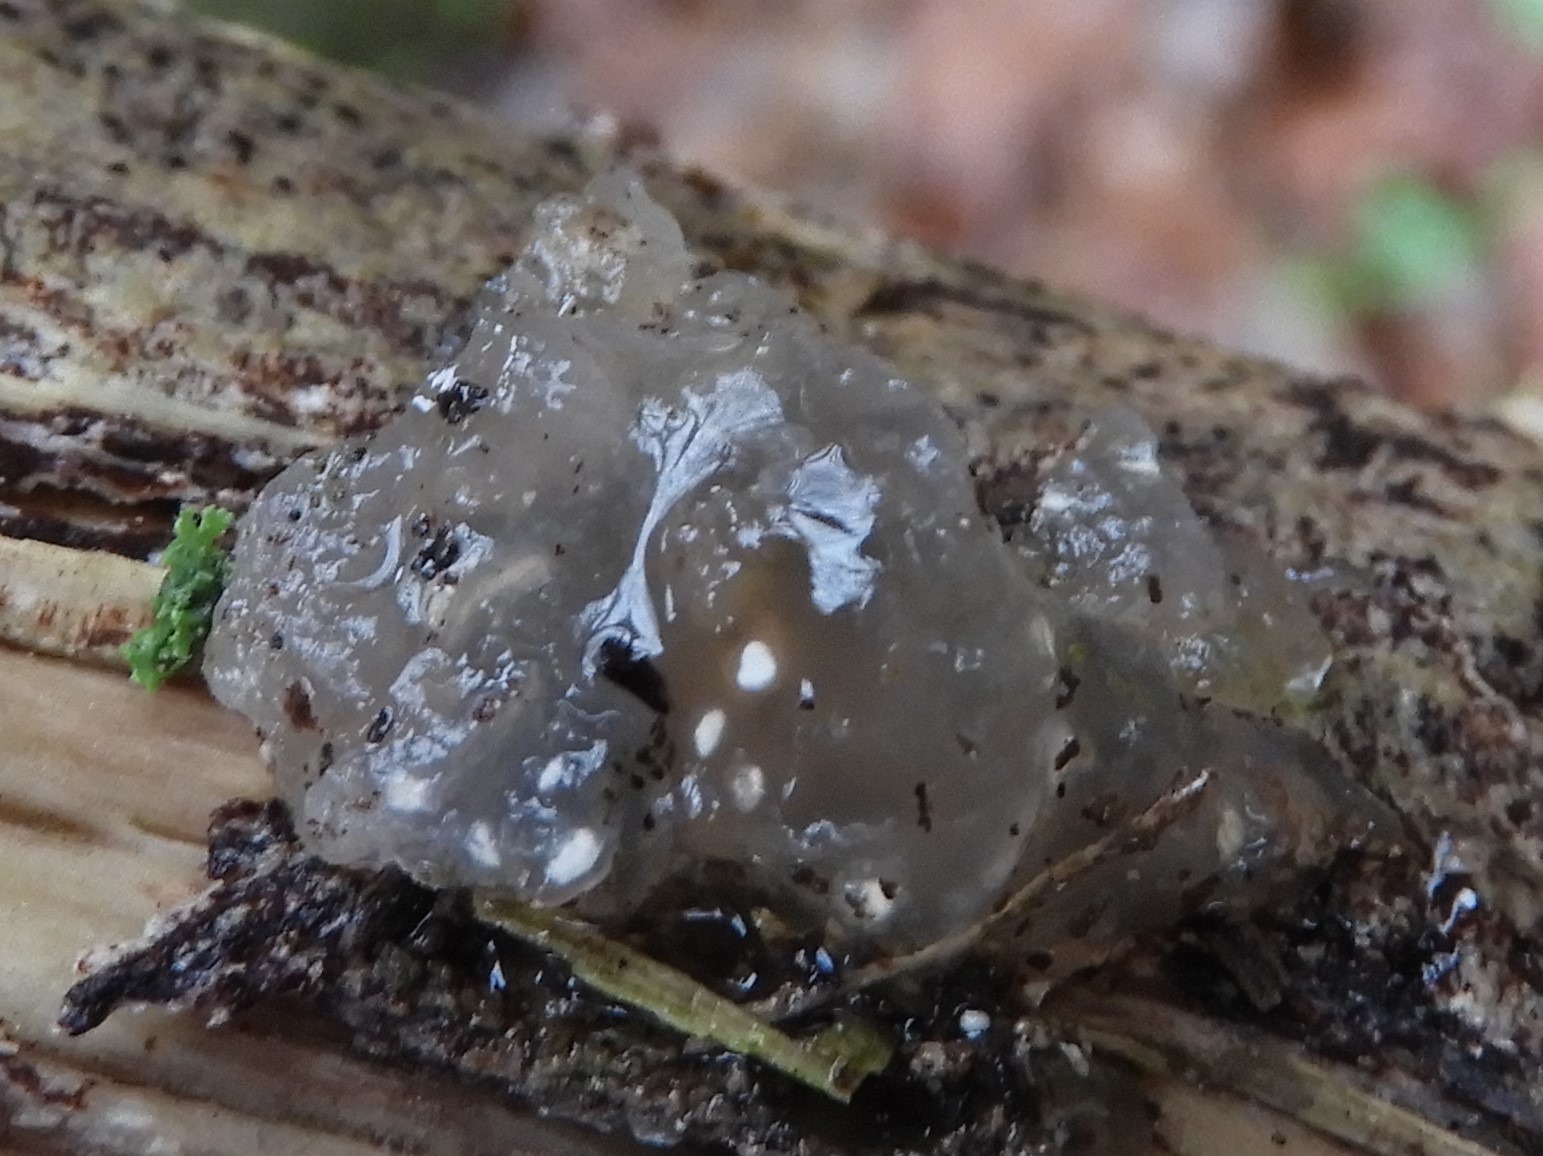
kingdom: Fungi
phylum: Basidiomycota
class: Agaricomycetes
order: Auriculariales
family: Hyaloriaceae
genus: Myxarium
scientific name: Myxarium nucleatum
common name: klar bævretop
